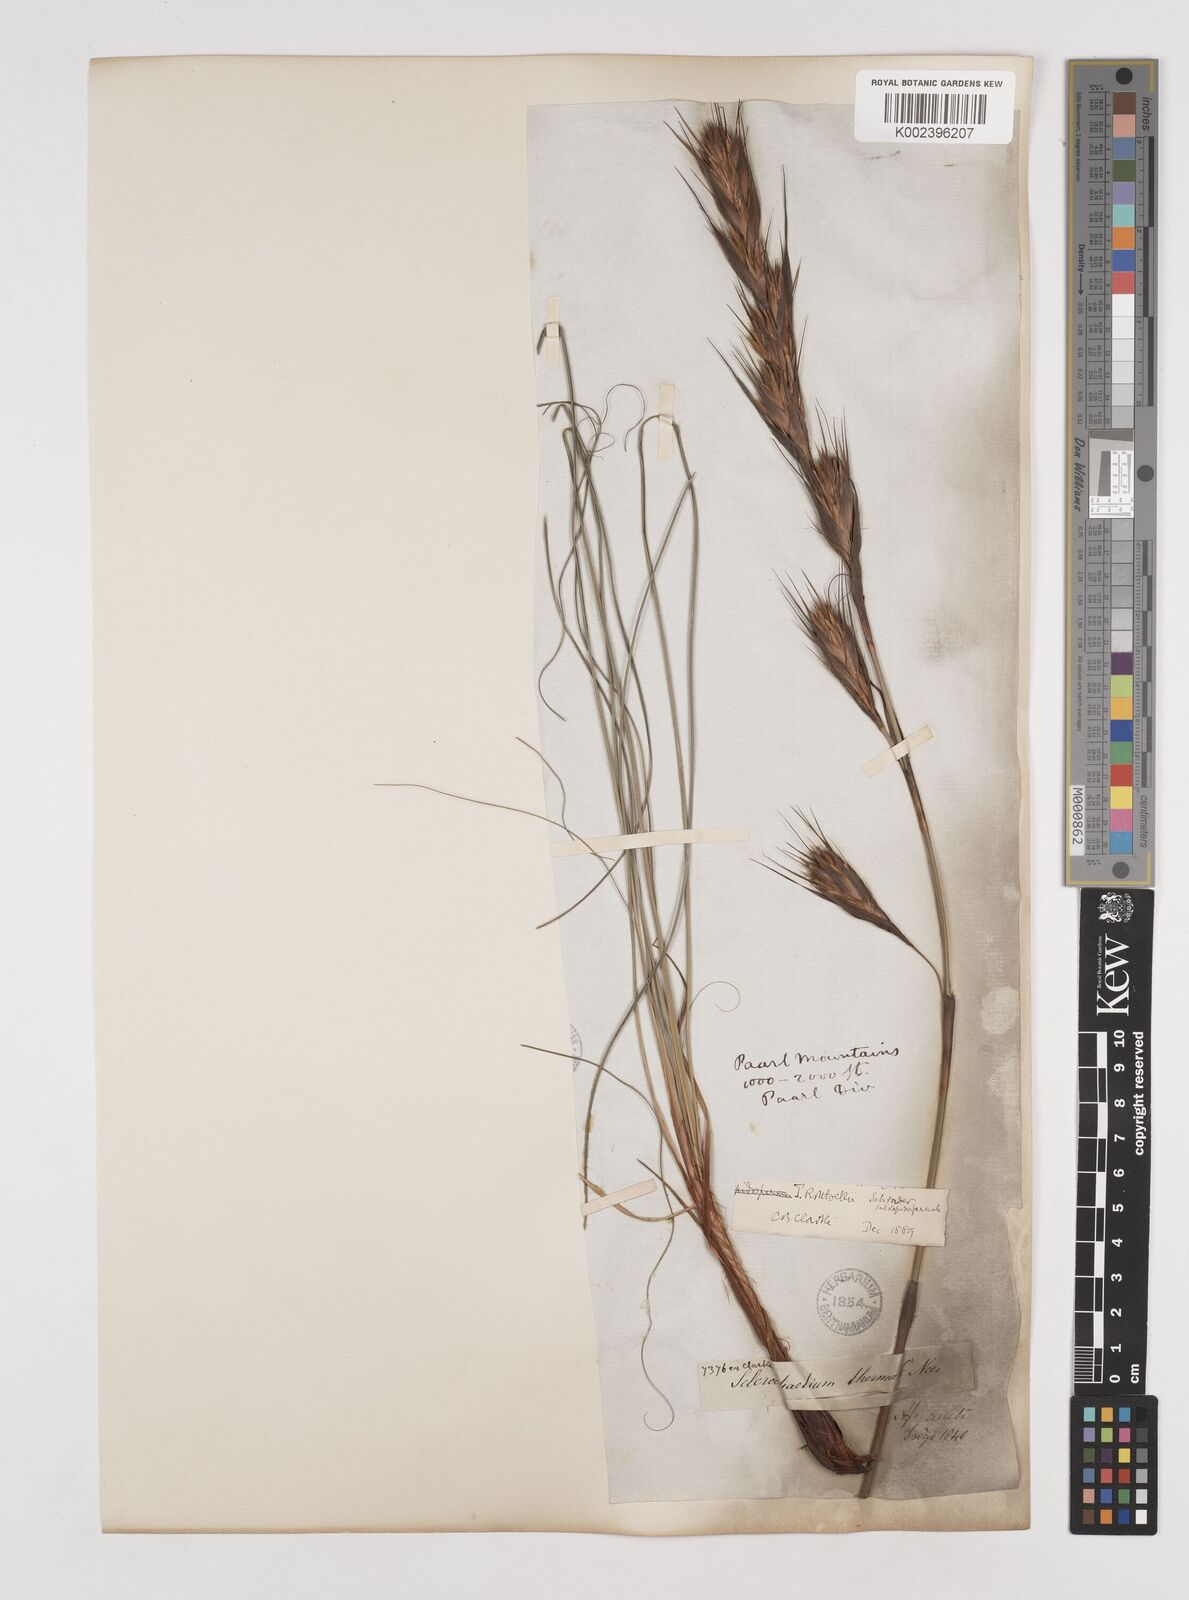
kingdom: Plantae
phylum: Tracheophyta
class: Liliopsida
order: Poales
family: Cyperaceae
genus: Tetraria
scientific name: Tetraria bromoides
